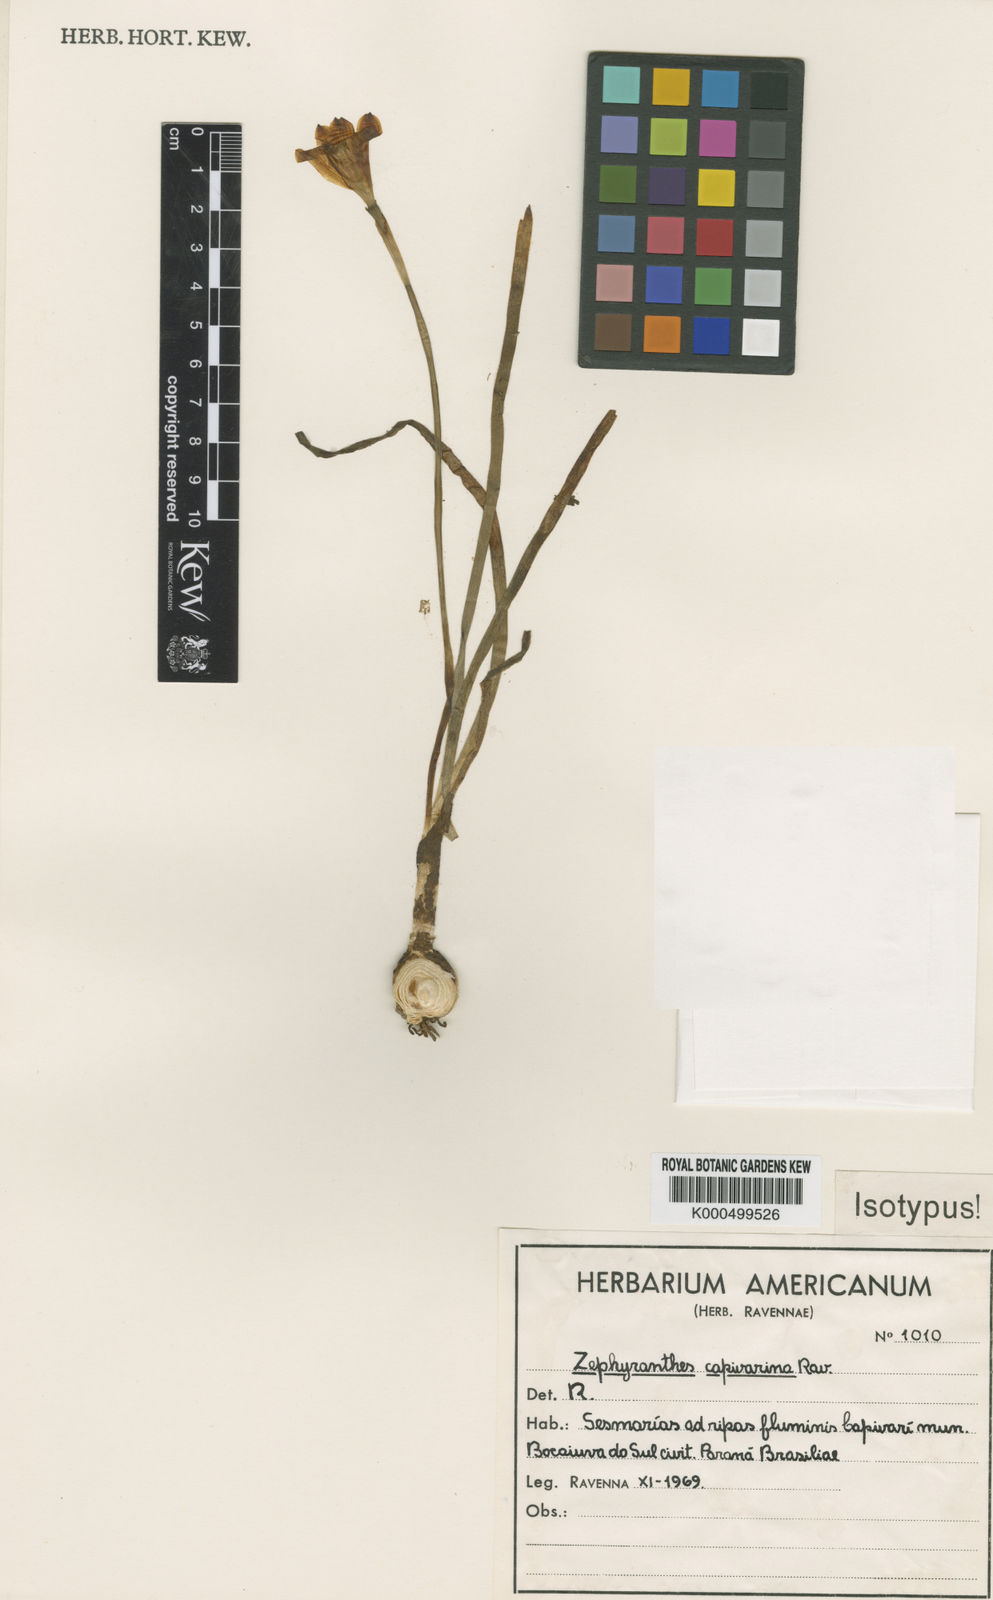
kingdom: Plantae
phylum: Tracheophyta
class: Liliopsida
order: Asparagales
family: Amaryllidaceae
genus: Zephyranthes
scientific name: Zephyranthes capivarina
